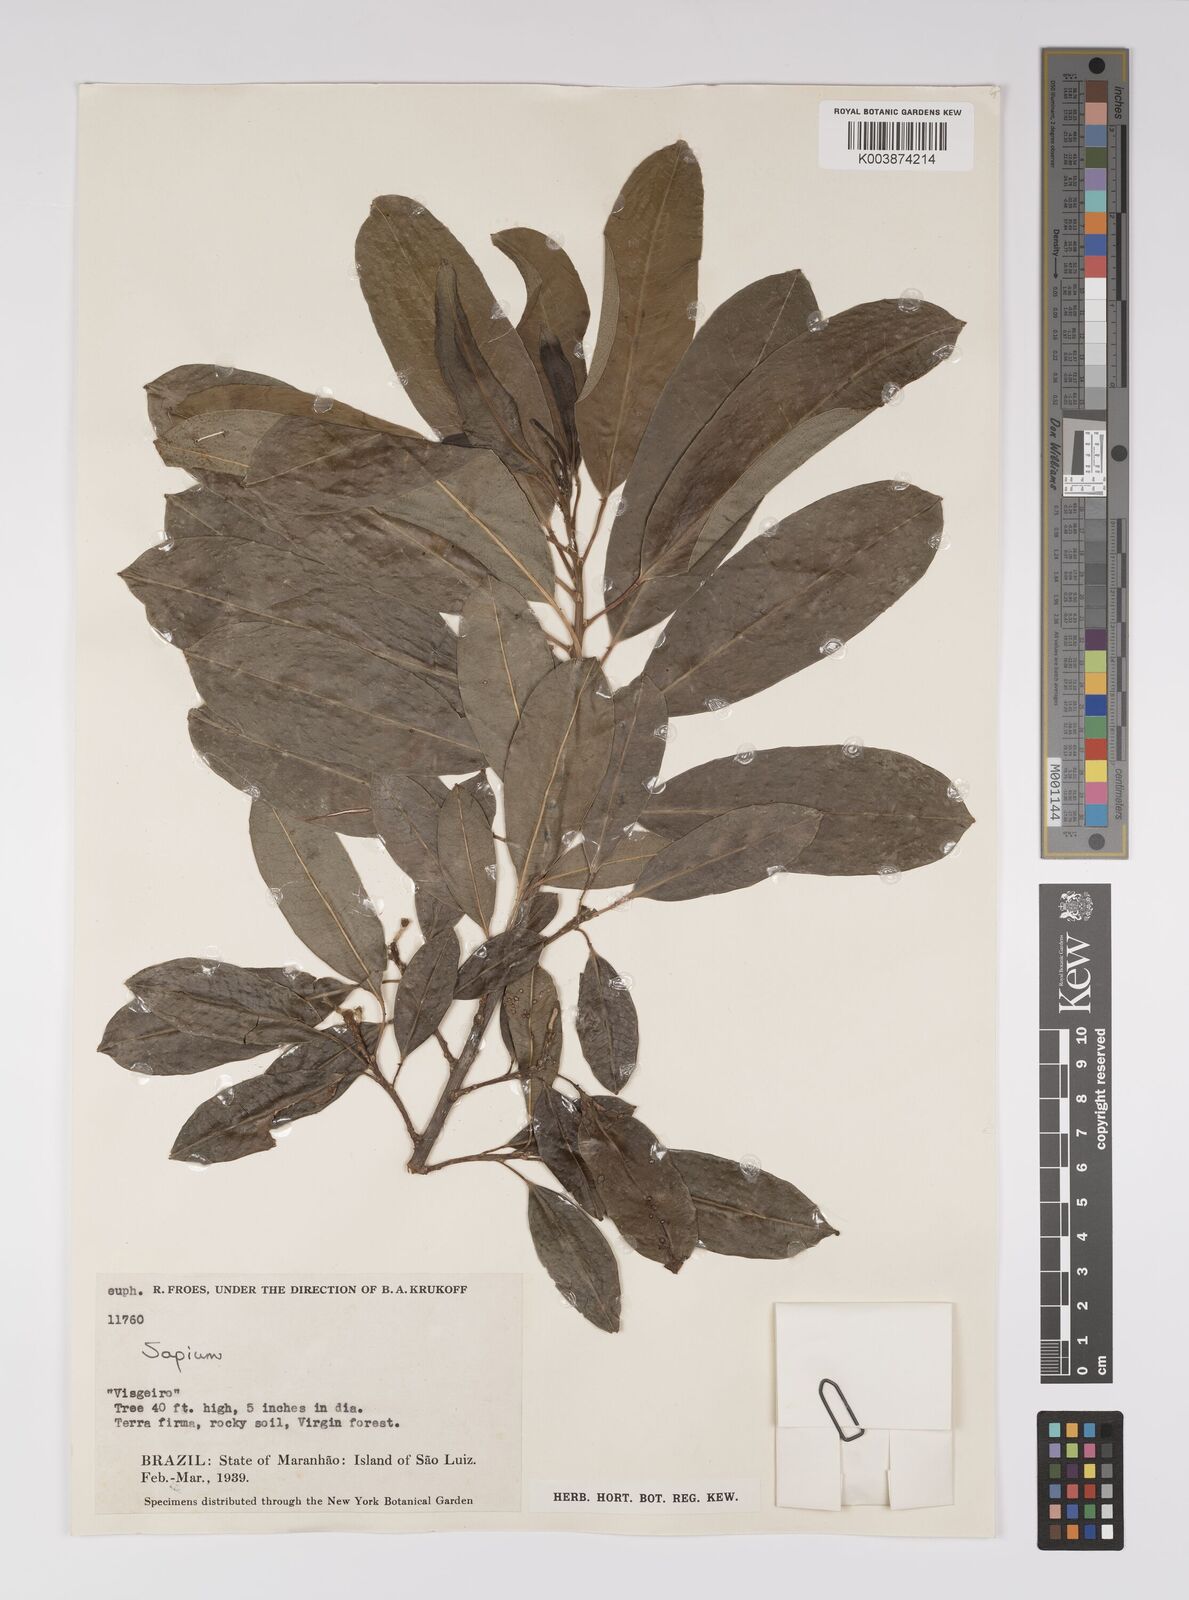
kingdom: Plantae
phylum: Tracheophyta
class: Magnoliopsida
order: Malpighiales
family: Euphorbiaceae
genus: Sapium
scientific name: Sapium
